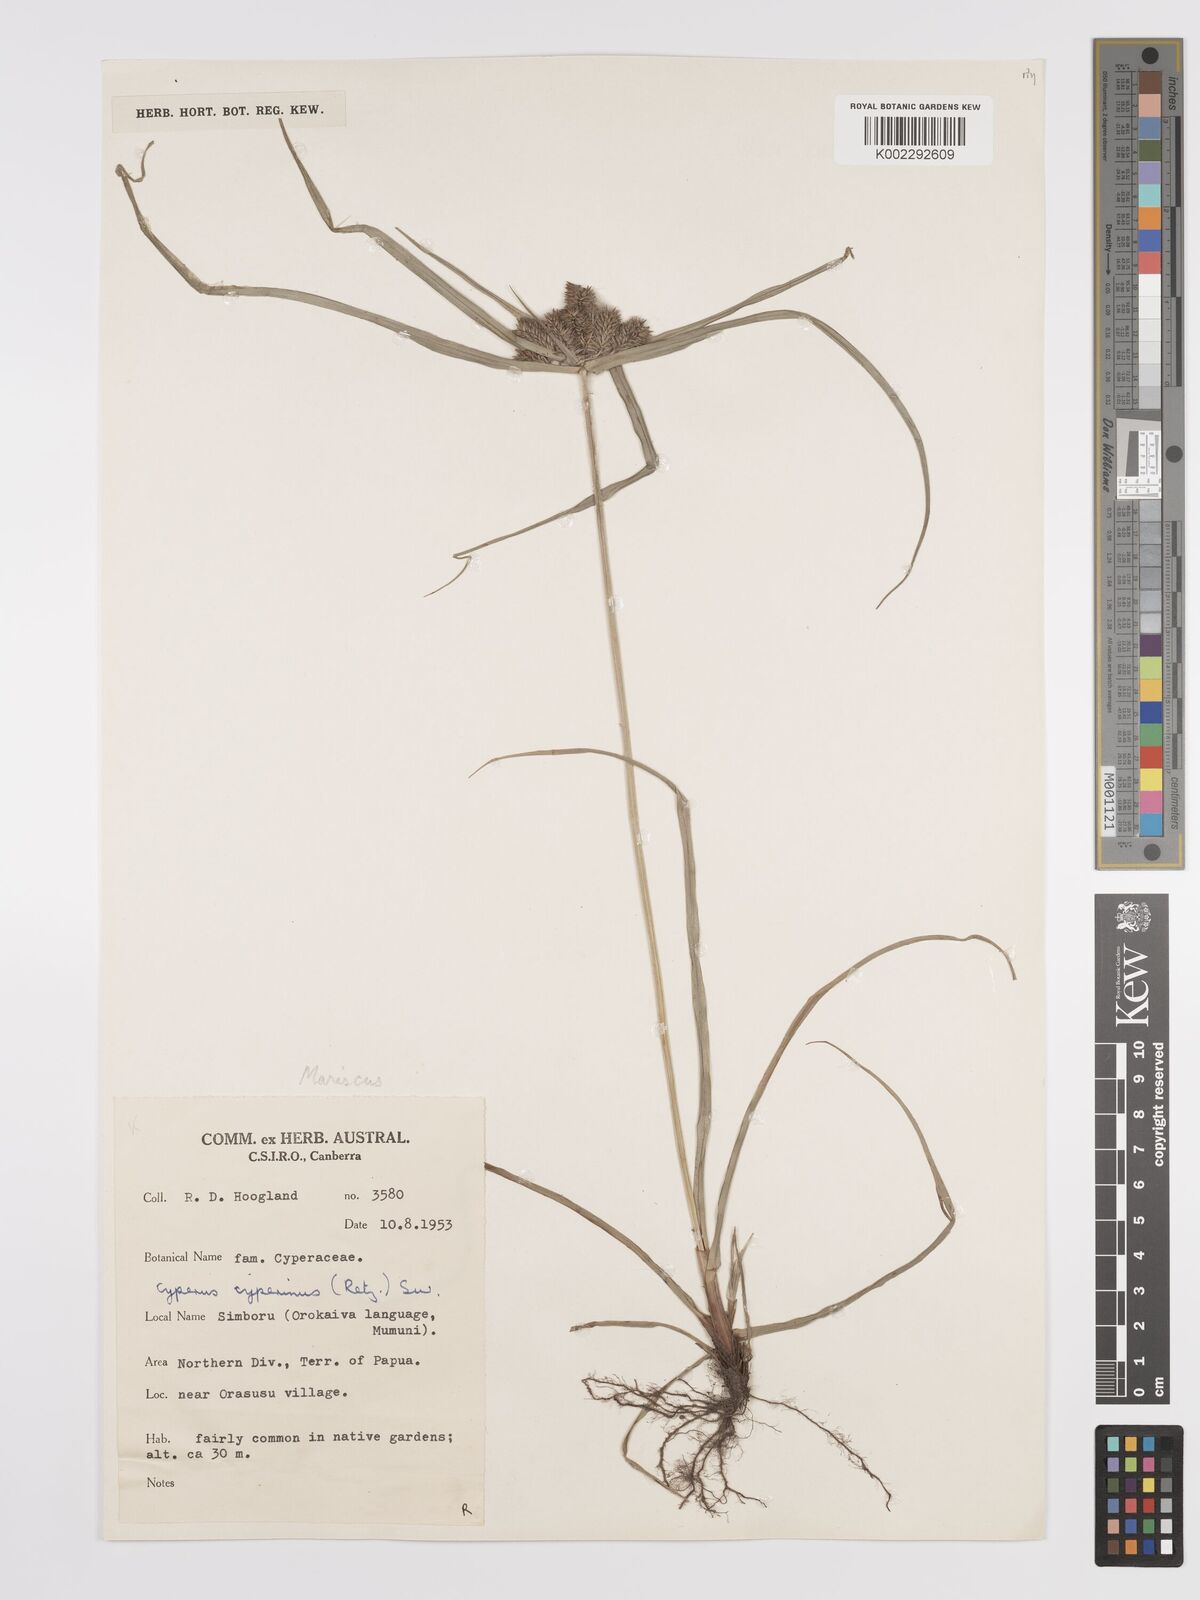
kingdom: Plantae
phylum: Tracheophyta
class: Liliopsida
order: Poales
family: Cyperaceae
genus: Cyperus
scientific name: Cyperus cyperinus
